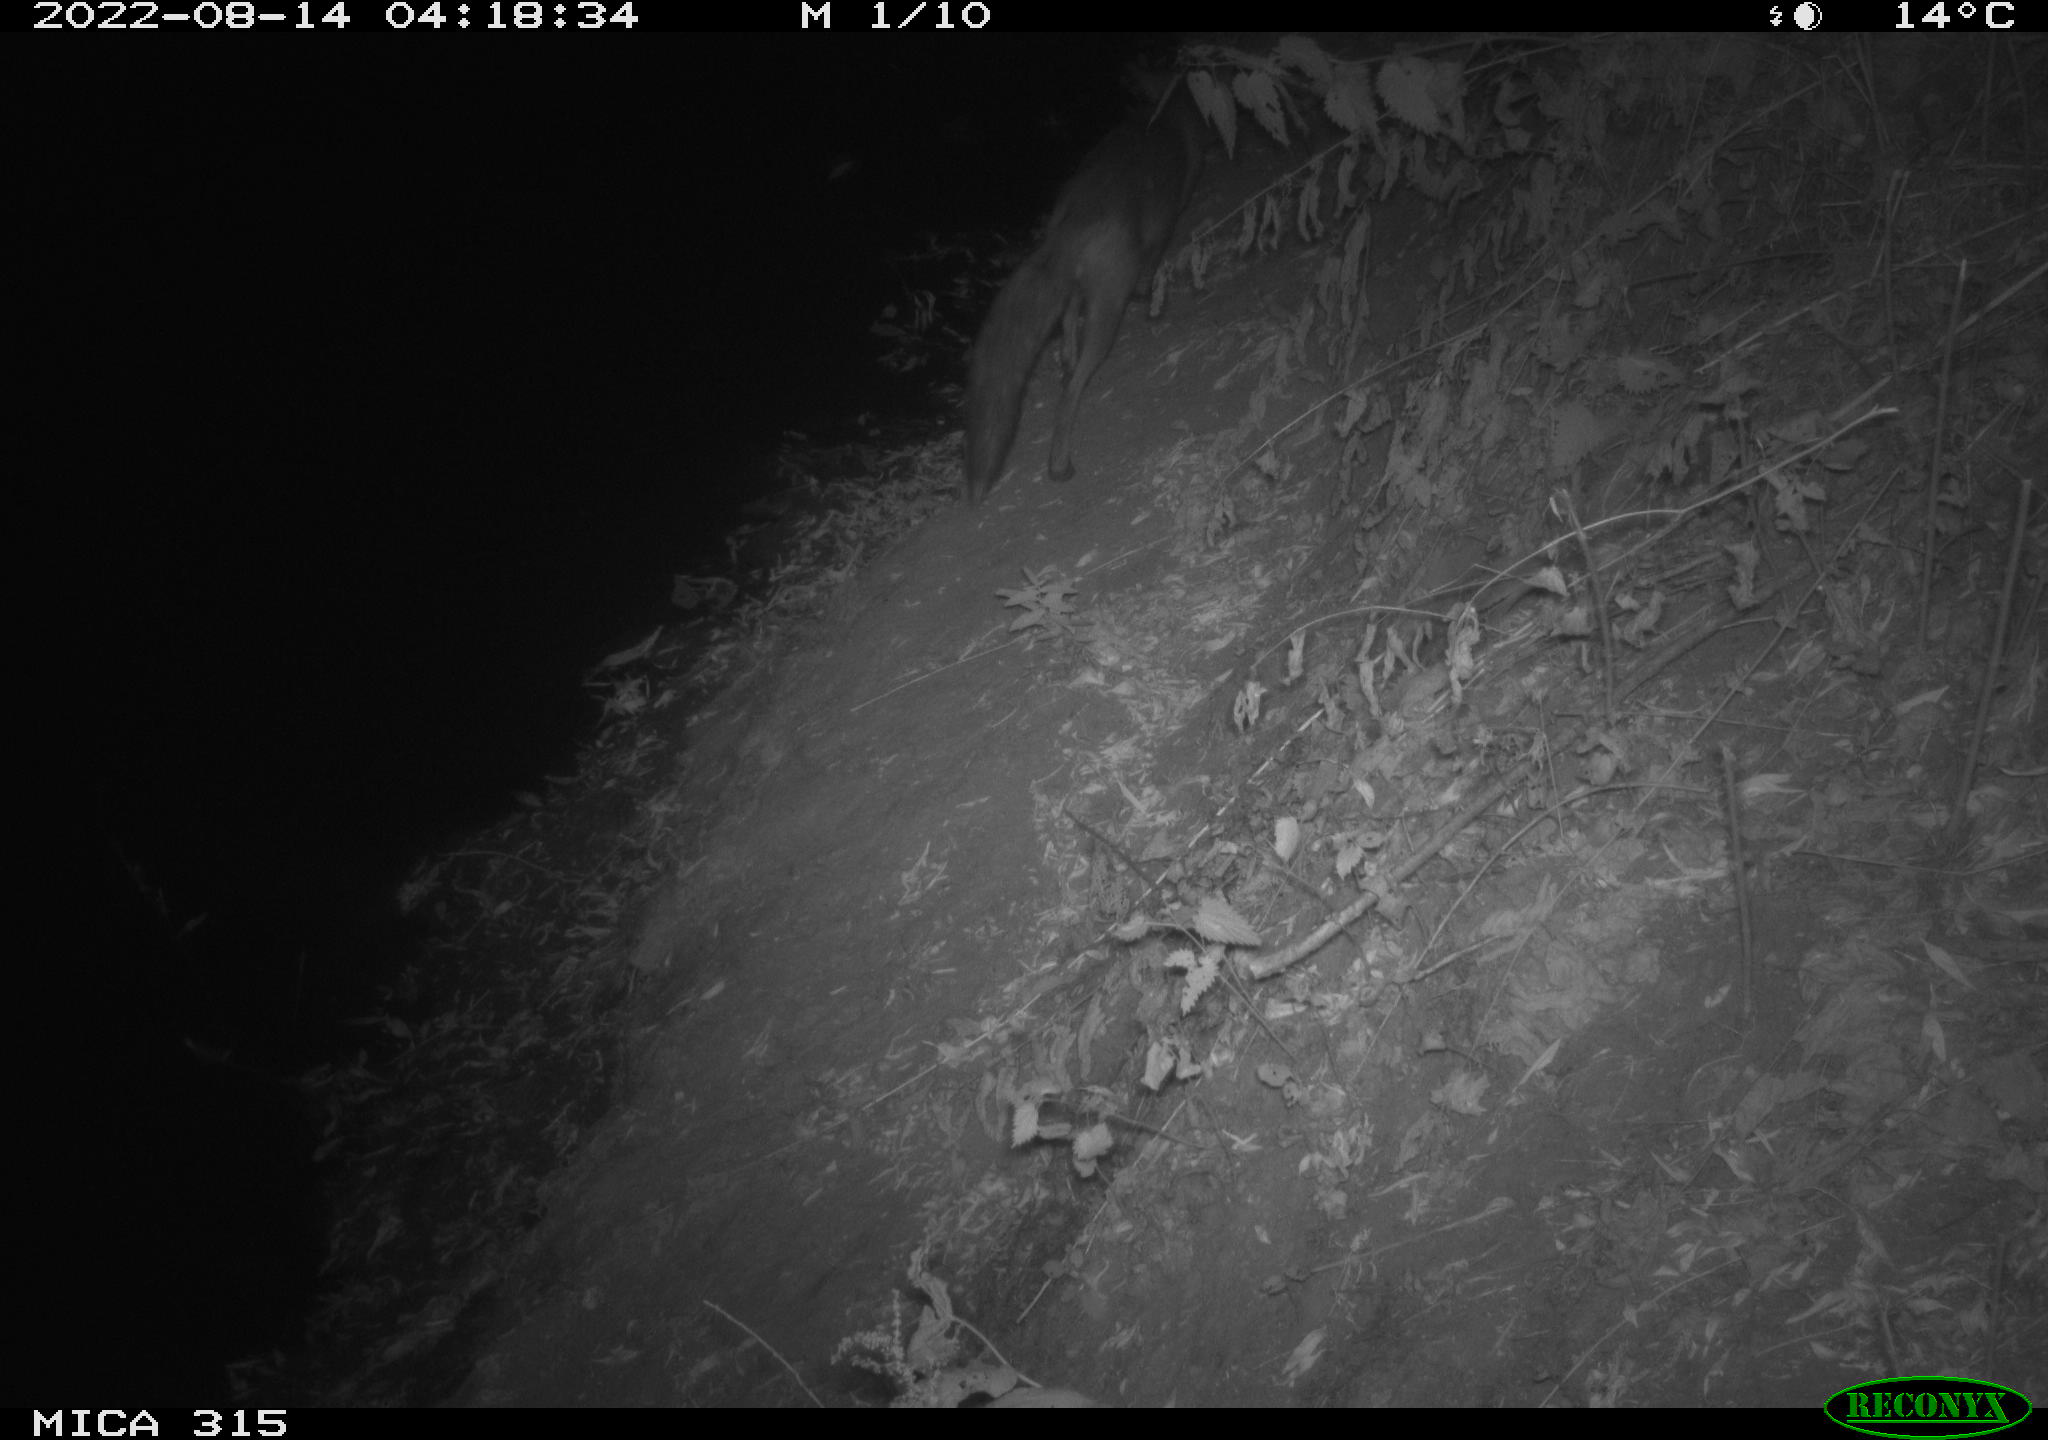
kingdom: Animalia
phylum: Chordata
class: Mammalia
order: Carnivora
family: Canidae
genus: Vulpes
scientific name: Vulpes vulpes
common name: Red fox
